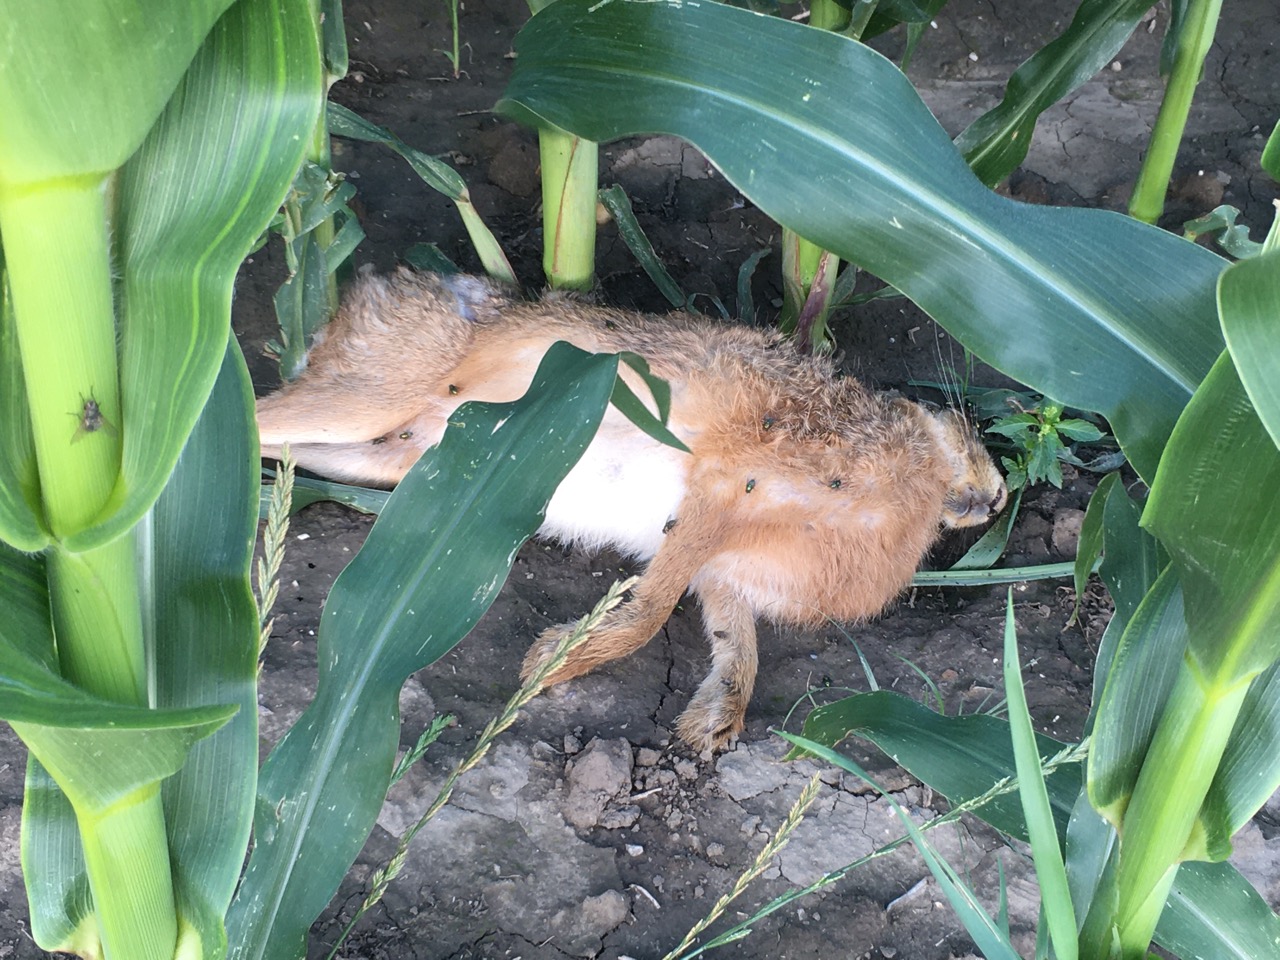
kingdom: Animalia
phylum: Chordata
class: Mammalia
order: Lagomorpha
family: Leporidae
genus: Lepus
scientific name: Lepus europaeus
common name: European hare
